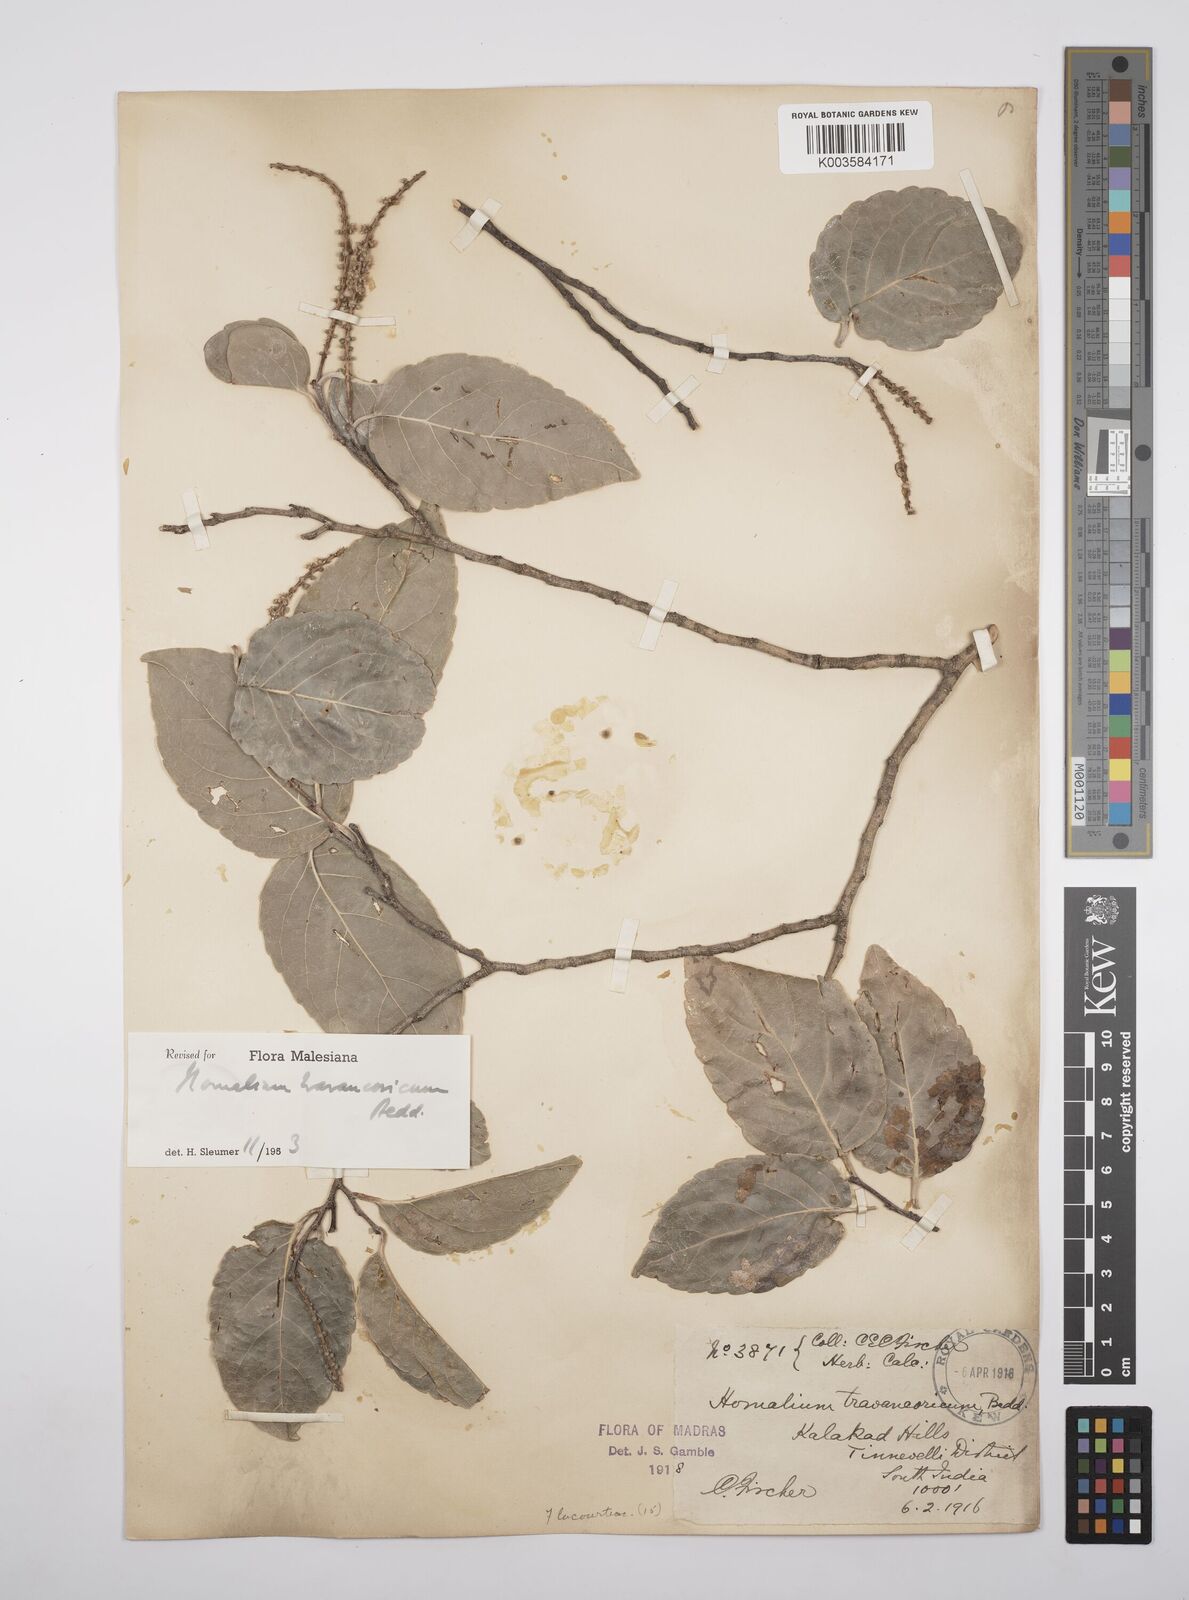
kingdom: Plantae
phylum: Tracheophyta
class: Magnoliopsida
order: Malpighiales
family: Salicaceae
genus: Homalium
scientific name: Homalium travancoricum
